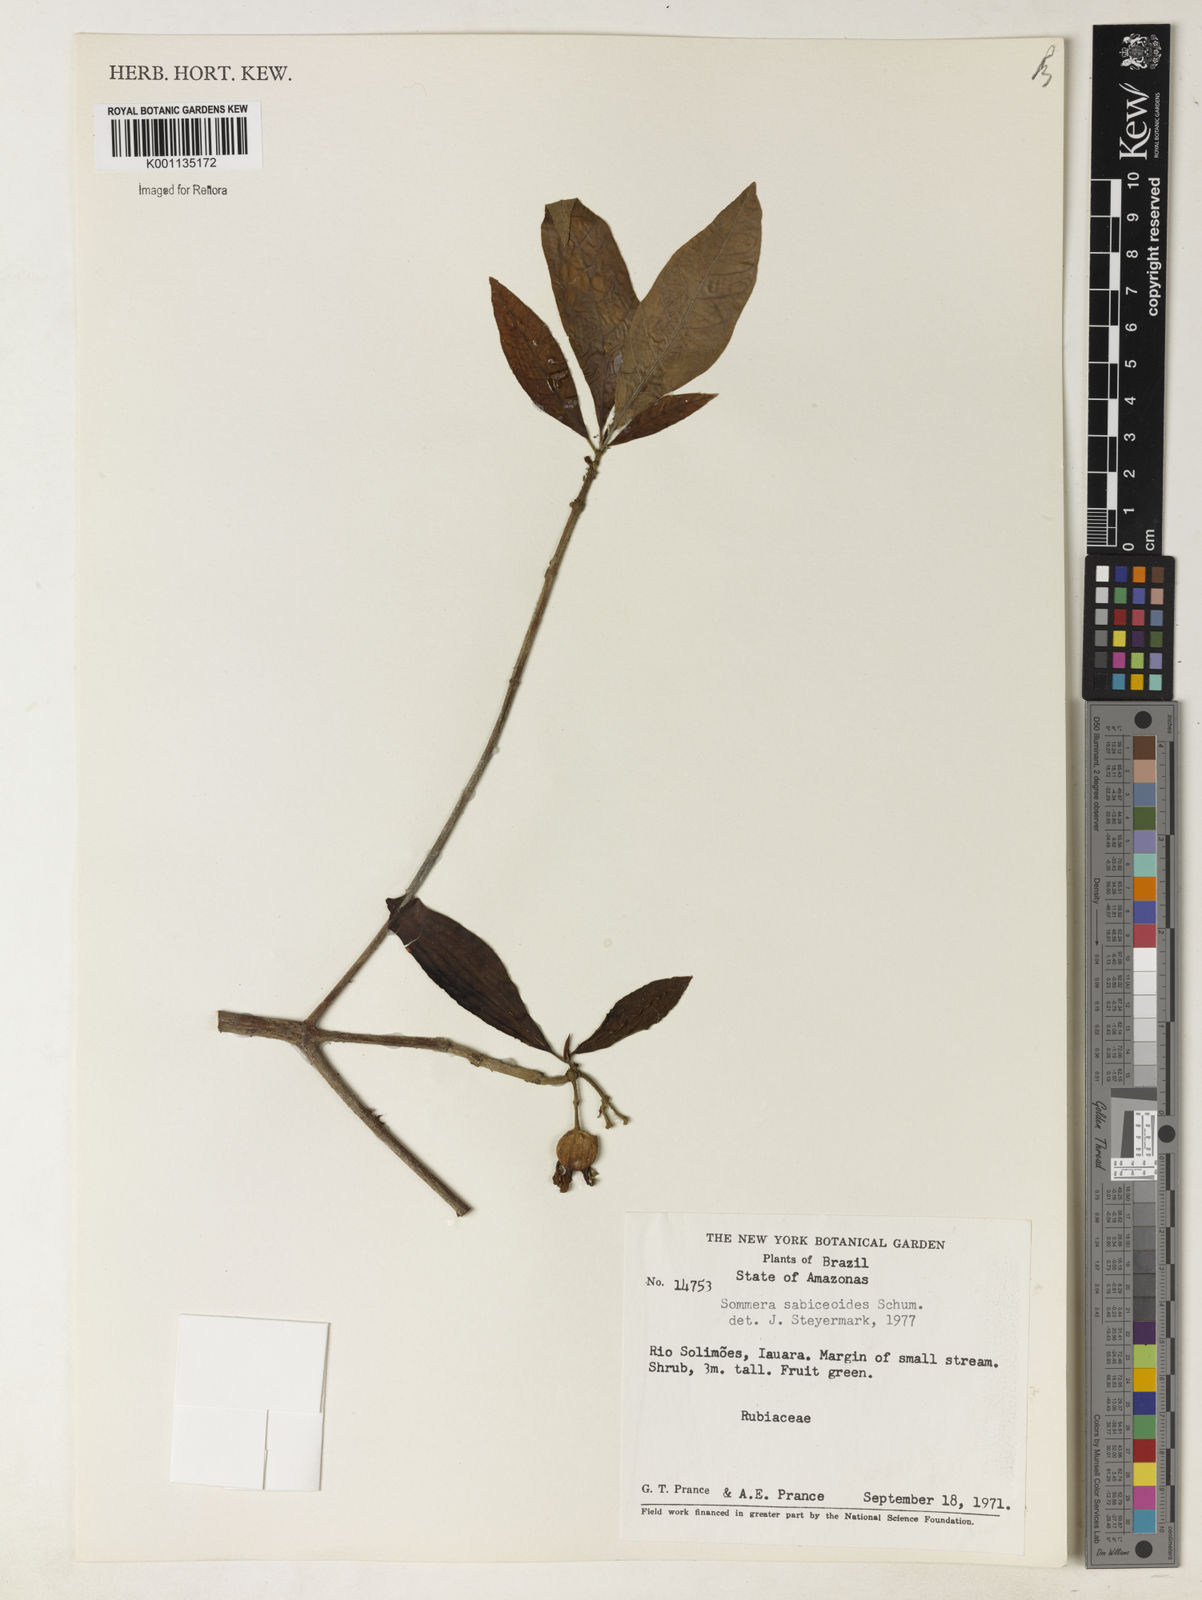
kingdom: Plantae
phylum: Tracheophyta
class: Magnoliopsida
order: Gentianales
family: Rubiaceae
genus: Sommera
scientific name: Sommera sabiceoides
